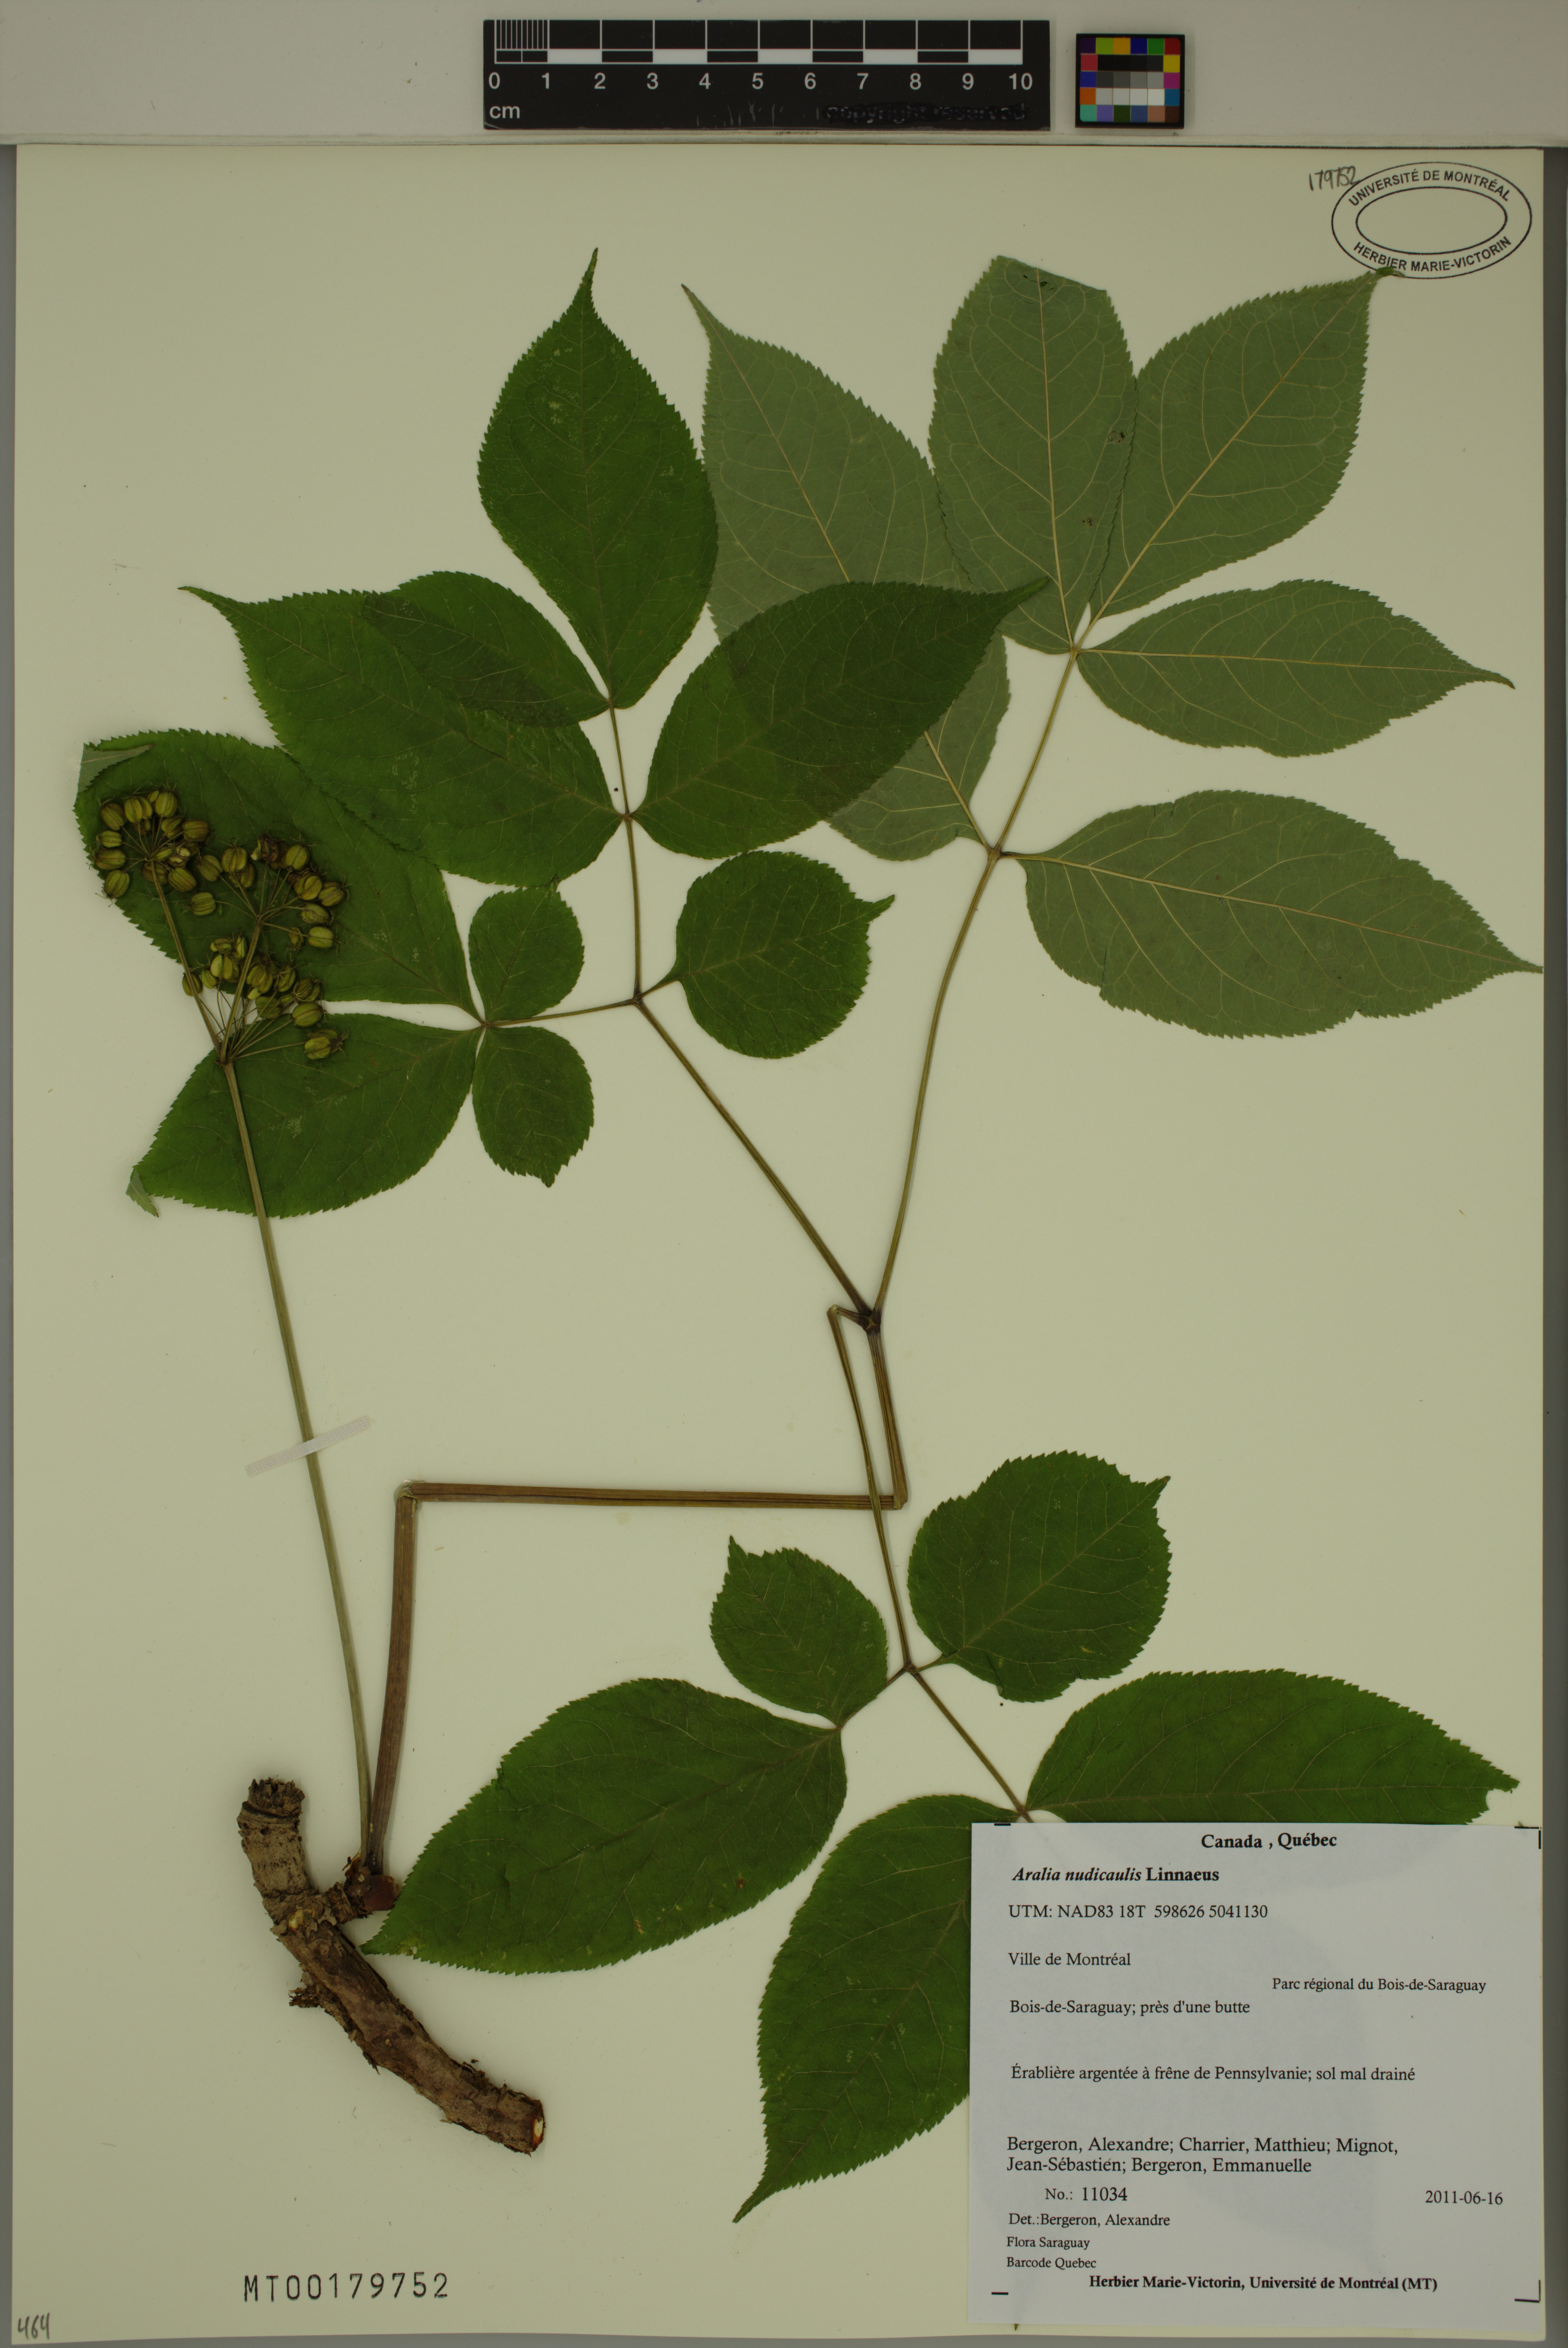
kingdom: Plantae
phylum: Tracheophyta
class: Magnoliopsida
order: Apiales
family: Araliaceae
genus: Aralia
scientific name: Aralia nudicaulis
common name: Wild sarsaparilla
